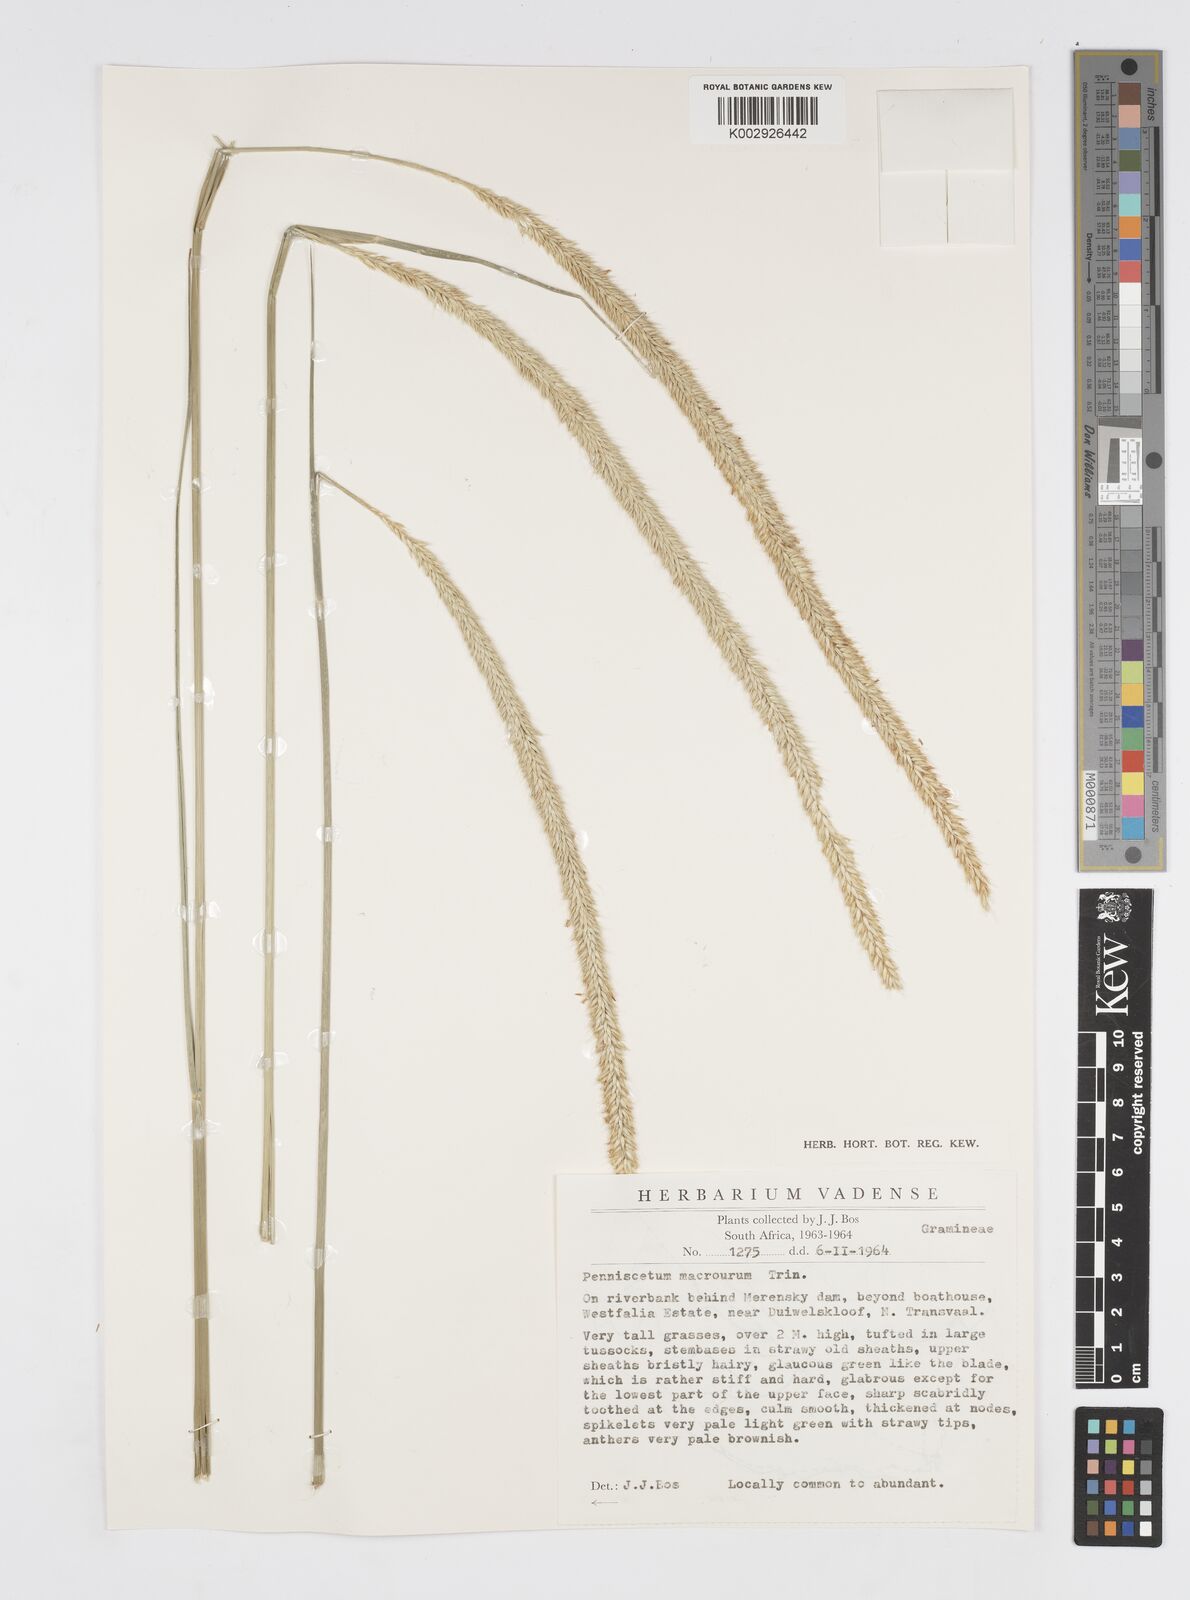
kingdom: Plantae
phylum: Tracheophyta
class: Liliopsida
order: Poales
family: Poaceae
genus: Cenchrus
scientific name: Cenchrus caudatus
